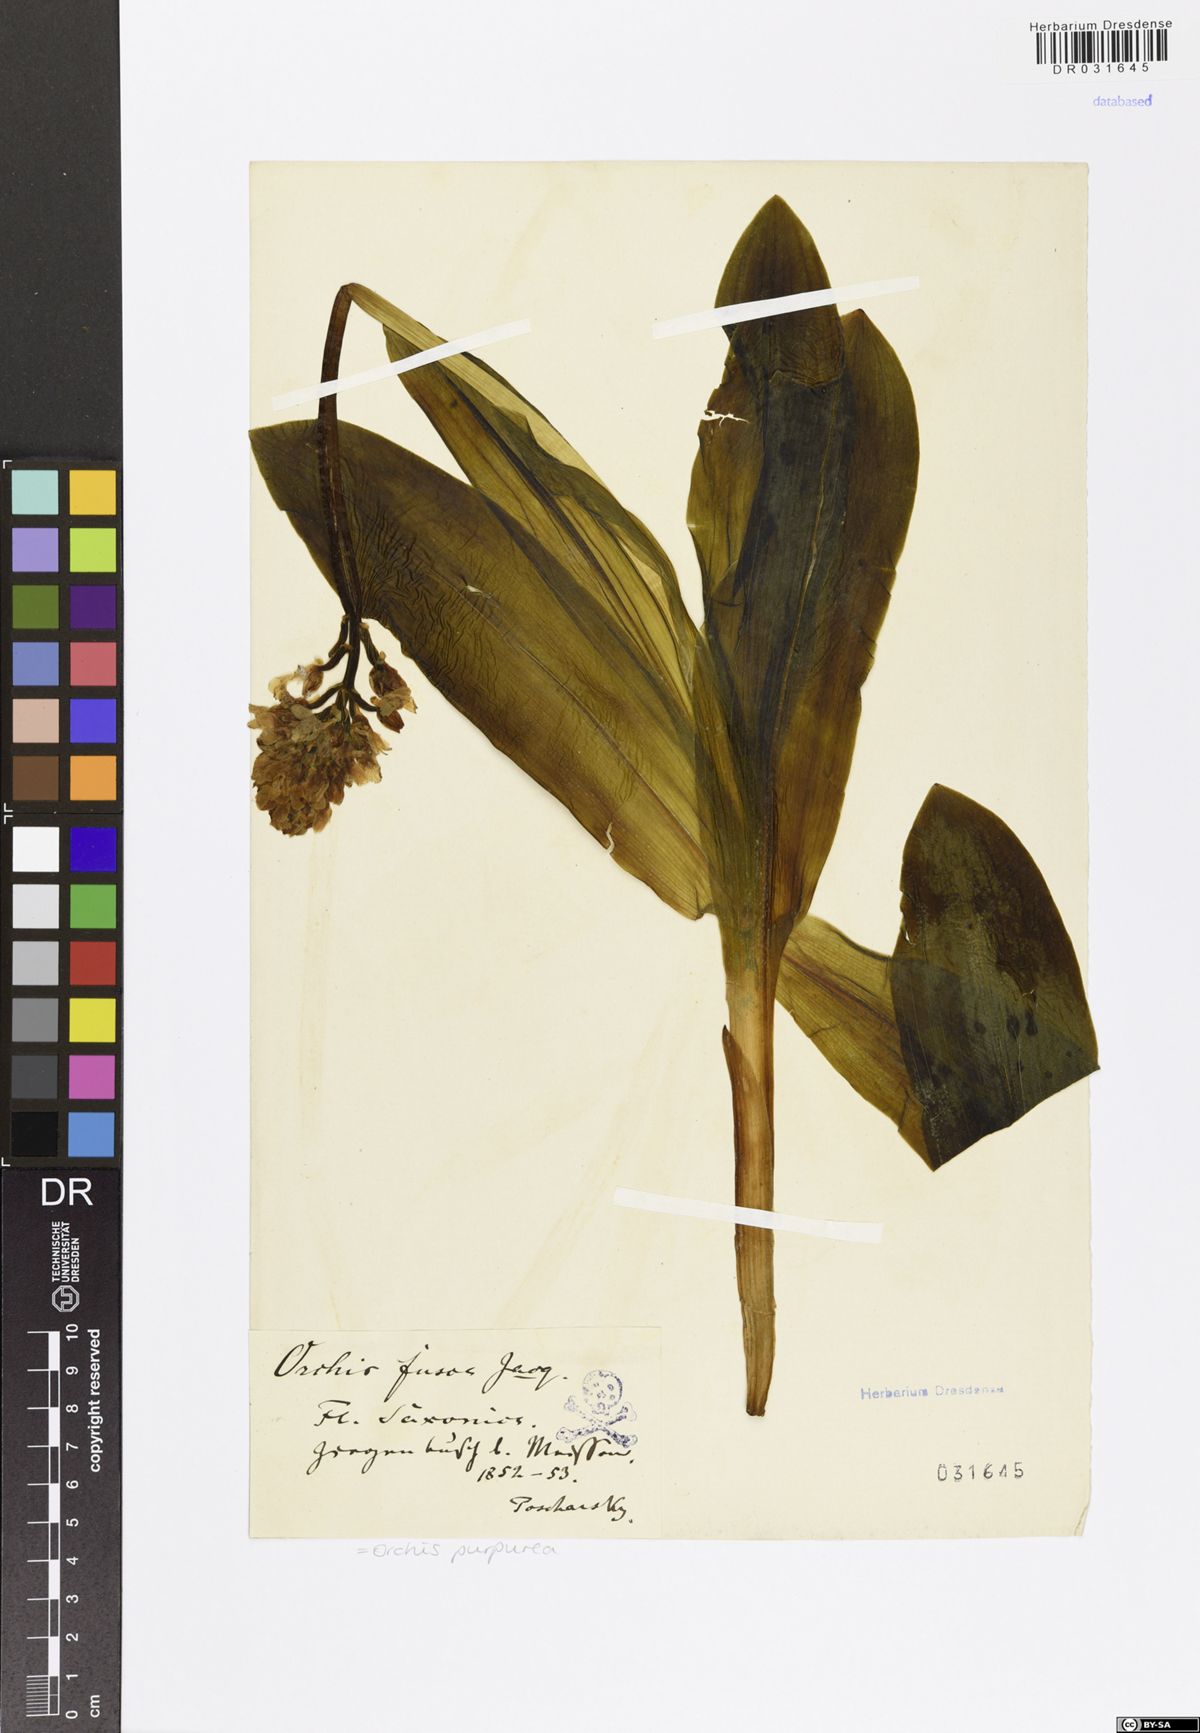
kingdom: Plantae
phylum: Tracheophyta
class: Liliopsida
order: Asparagales
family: Orchidaceae
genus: Orchis
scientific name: Orchis purpurea
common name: Lady orchid
